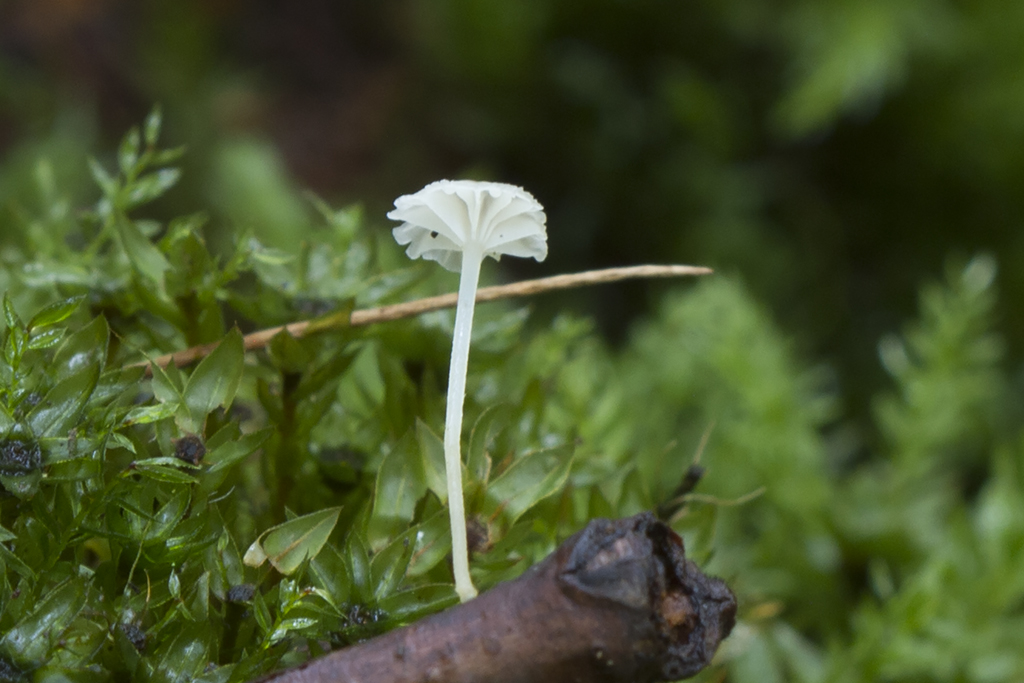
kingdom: Fungi
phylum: Basidiomycota
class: Agaricomycetes
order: Agaricales
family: Porotheleaceae
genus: Phloeomana
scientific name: Phloeomana speirea
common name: kvist-huesvamp
